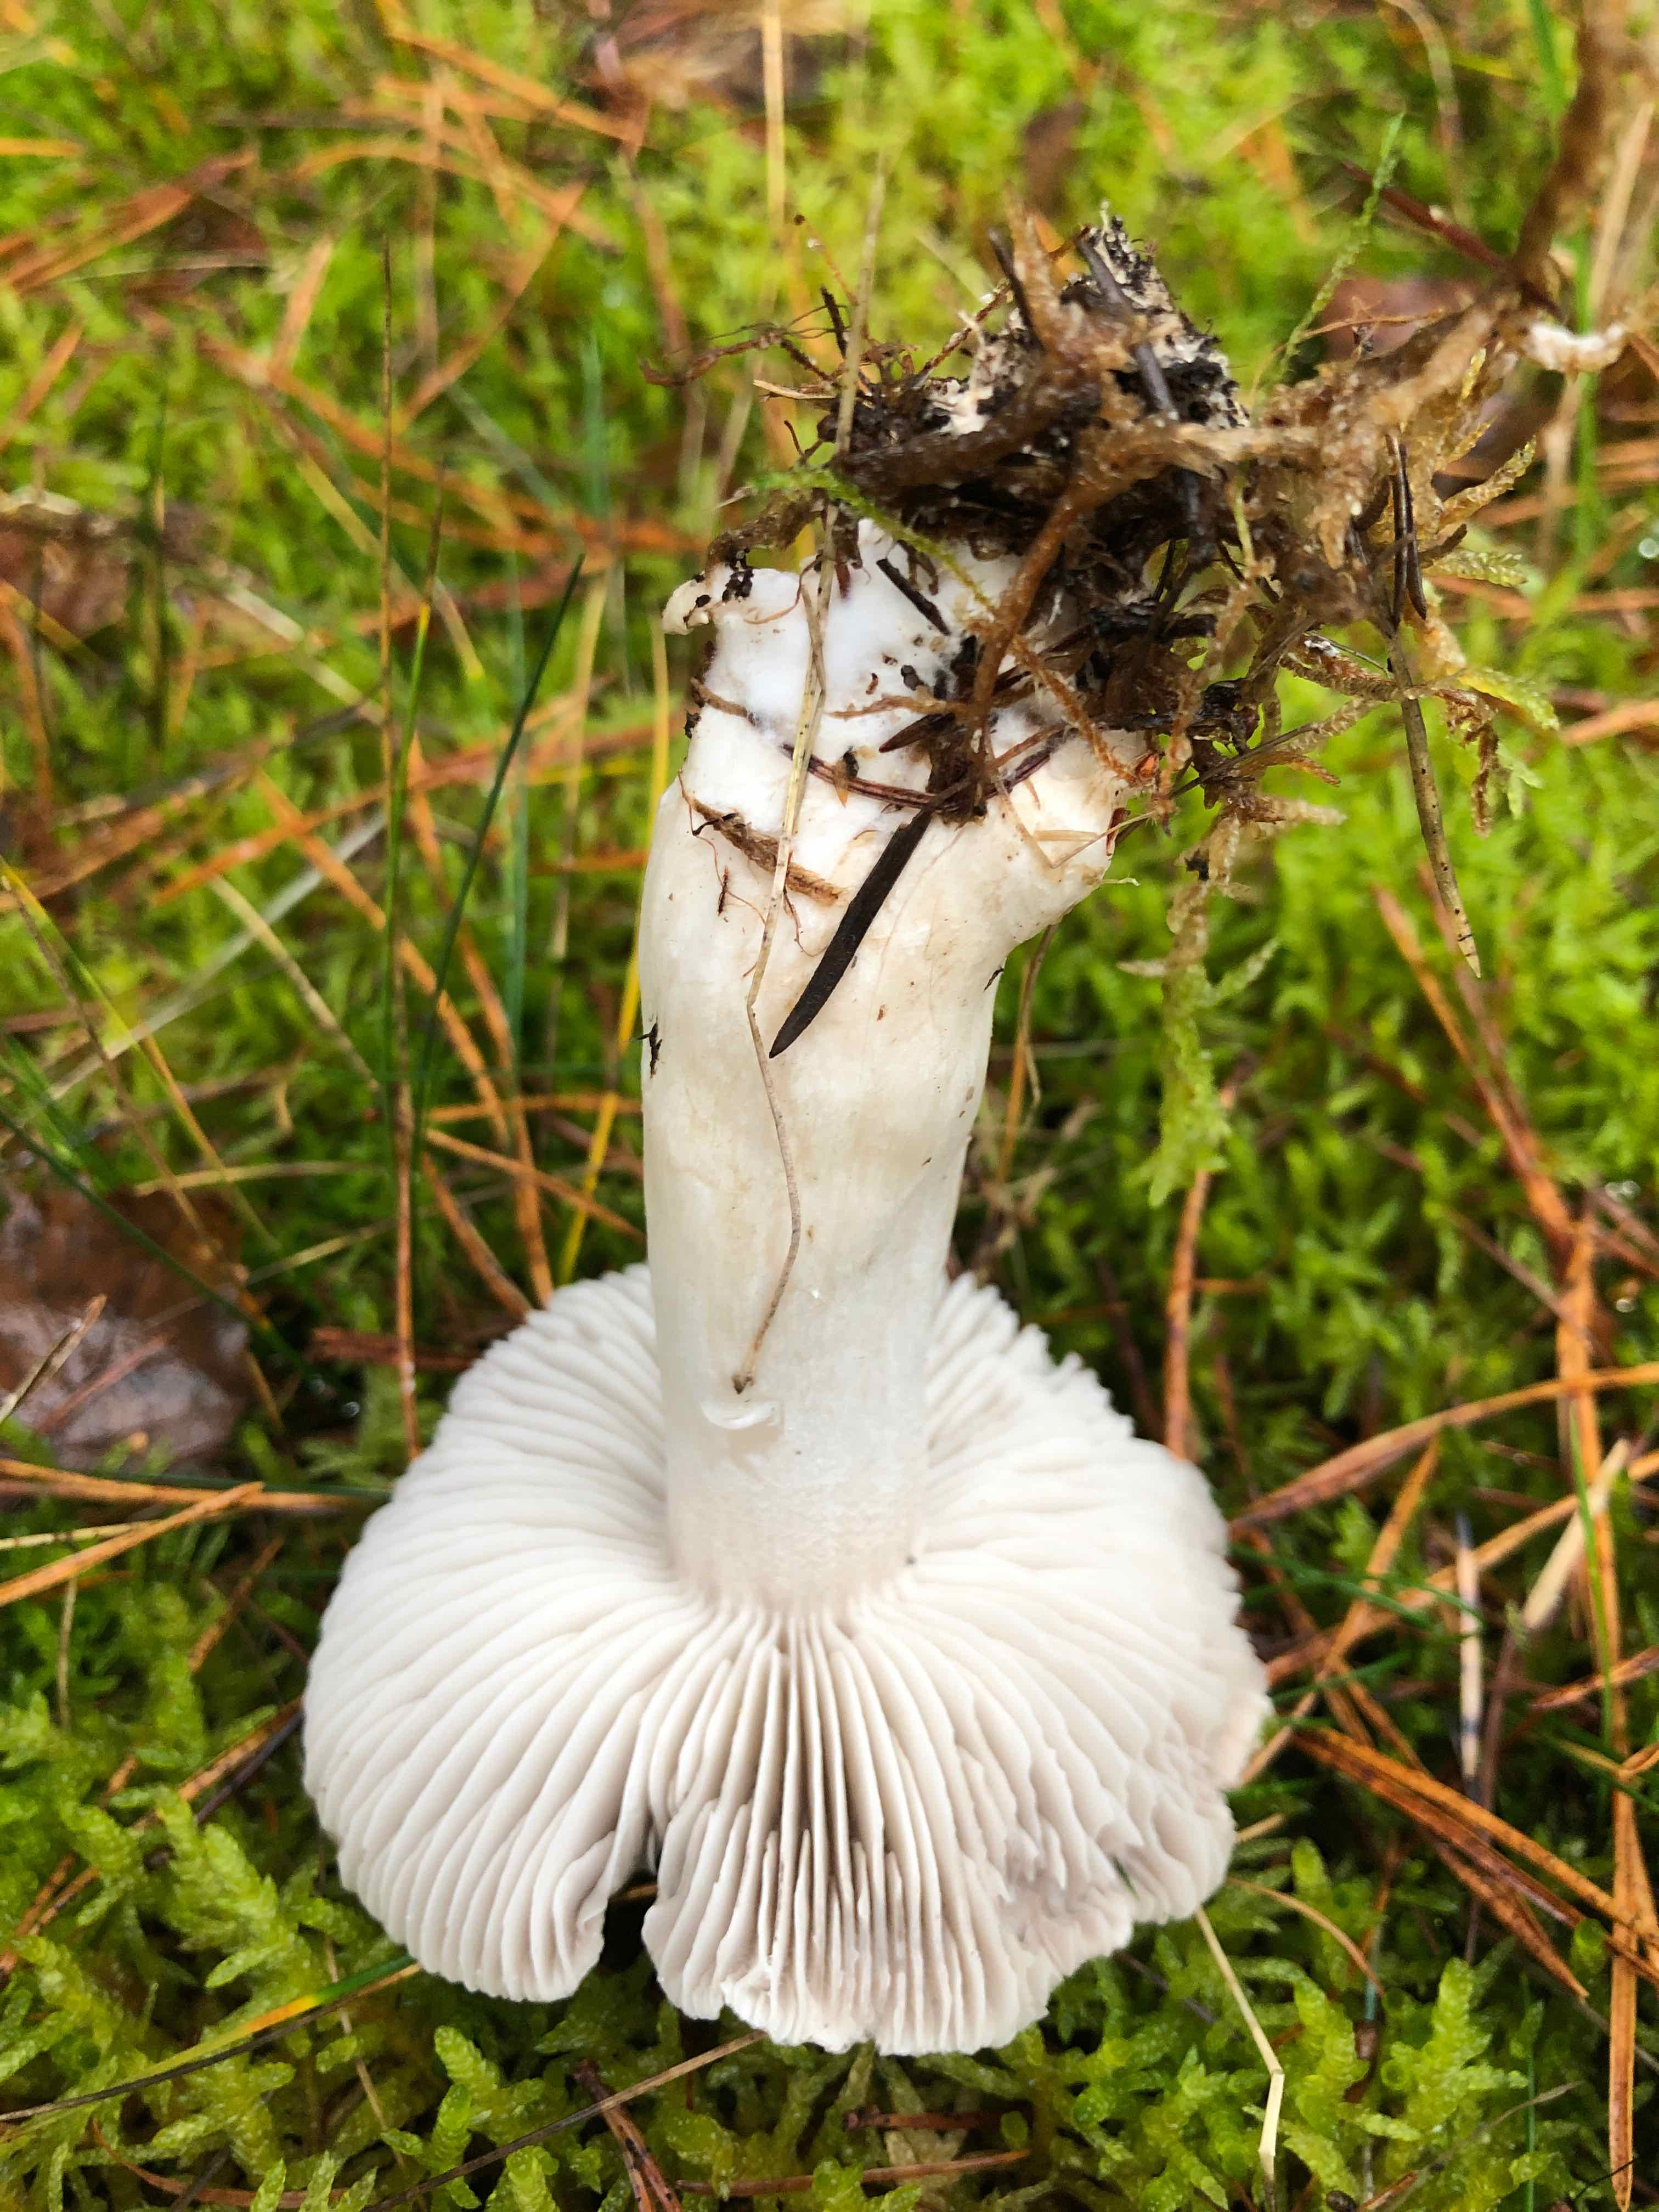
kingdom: Fungi
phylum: Basidiomycota
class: Agaricomycetes
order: Agaricales
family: Tricholomataceae
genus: Tricholoma
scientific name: Tricholoma terreum
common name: jordfarvet ridderhat
